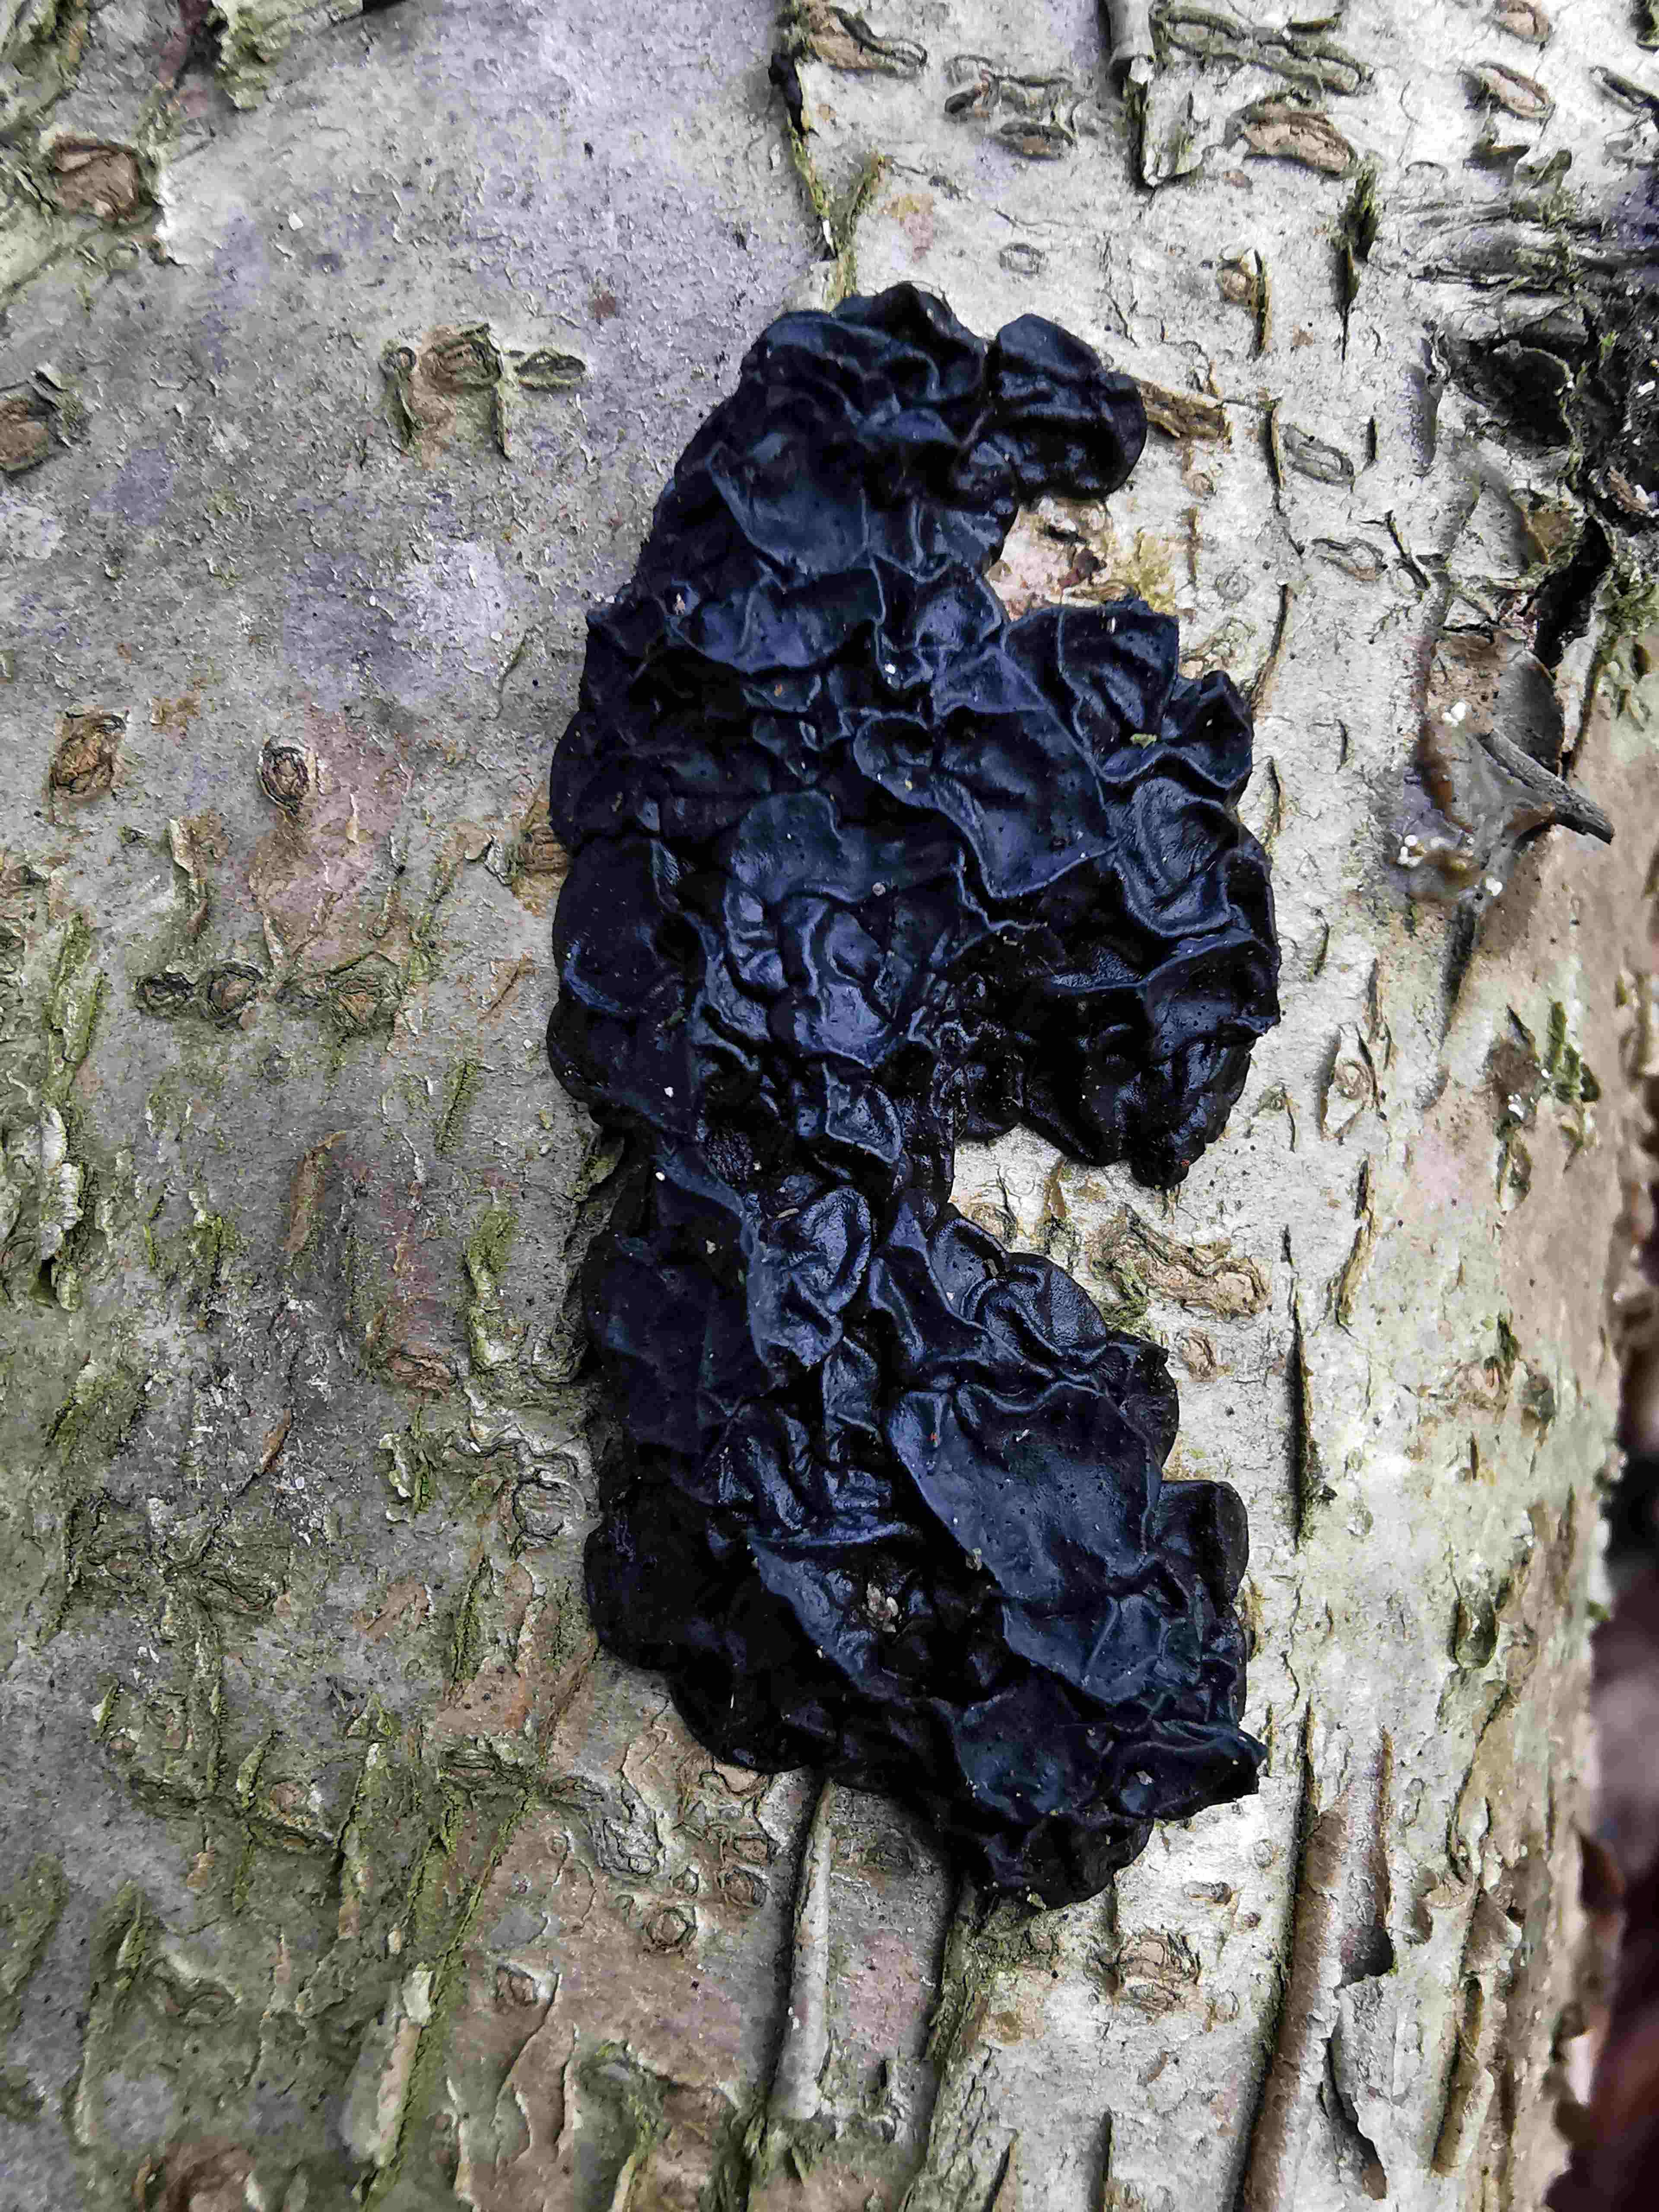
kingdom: Fungi
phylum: Basidiomycota
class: Agaricomycetes
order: Auriculariales
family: Auriculariaceae
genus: Exidia
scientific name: Exidia nigricans
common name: almindelig bævretop
